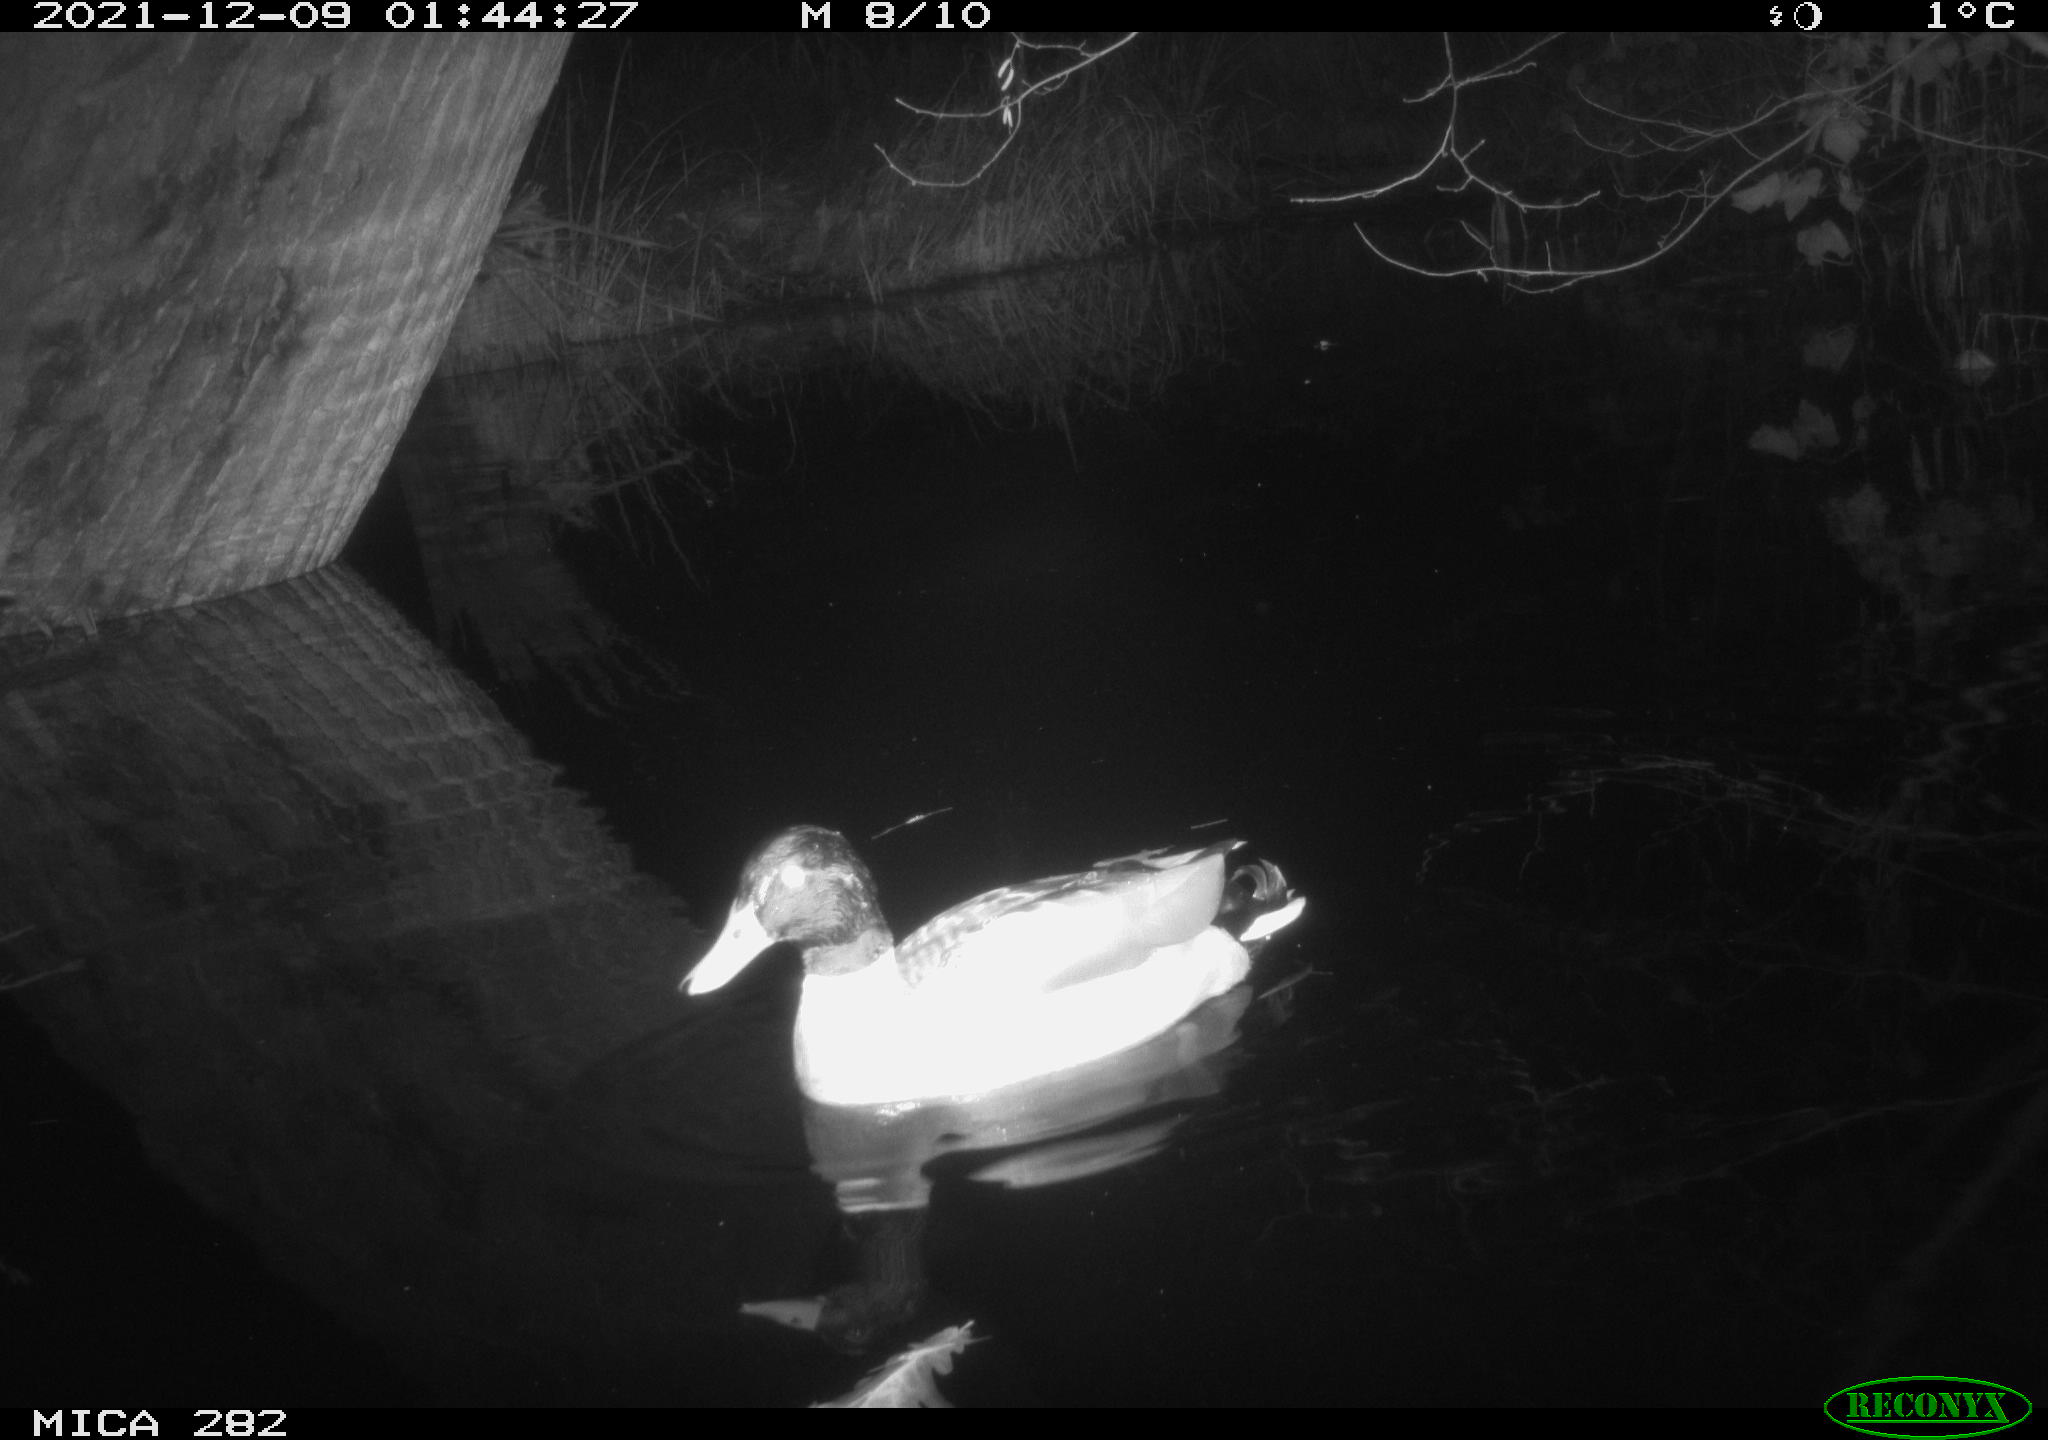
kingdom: Animalia
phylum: Chordata
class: Aves
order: Anseriformes
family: Anatidae
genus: Anas
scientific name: Anas platyrhynchos
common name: Mallard
